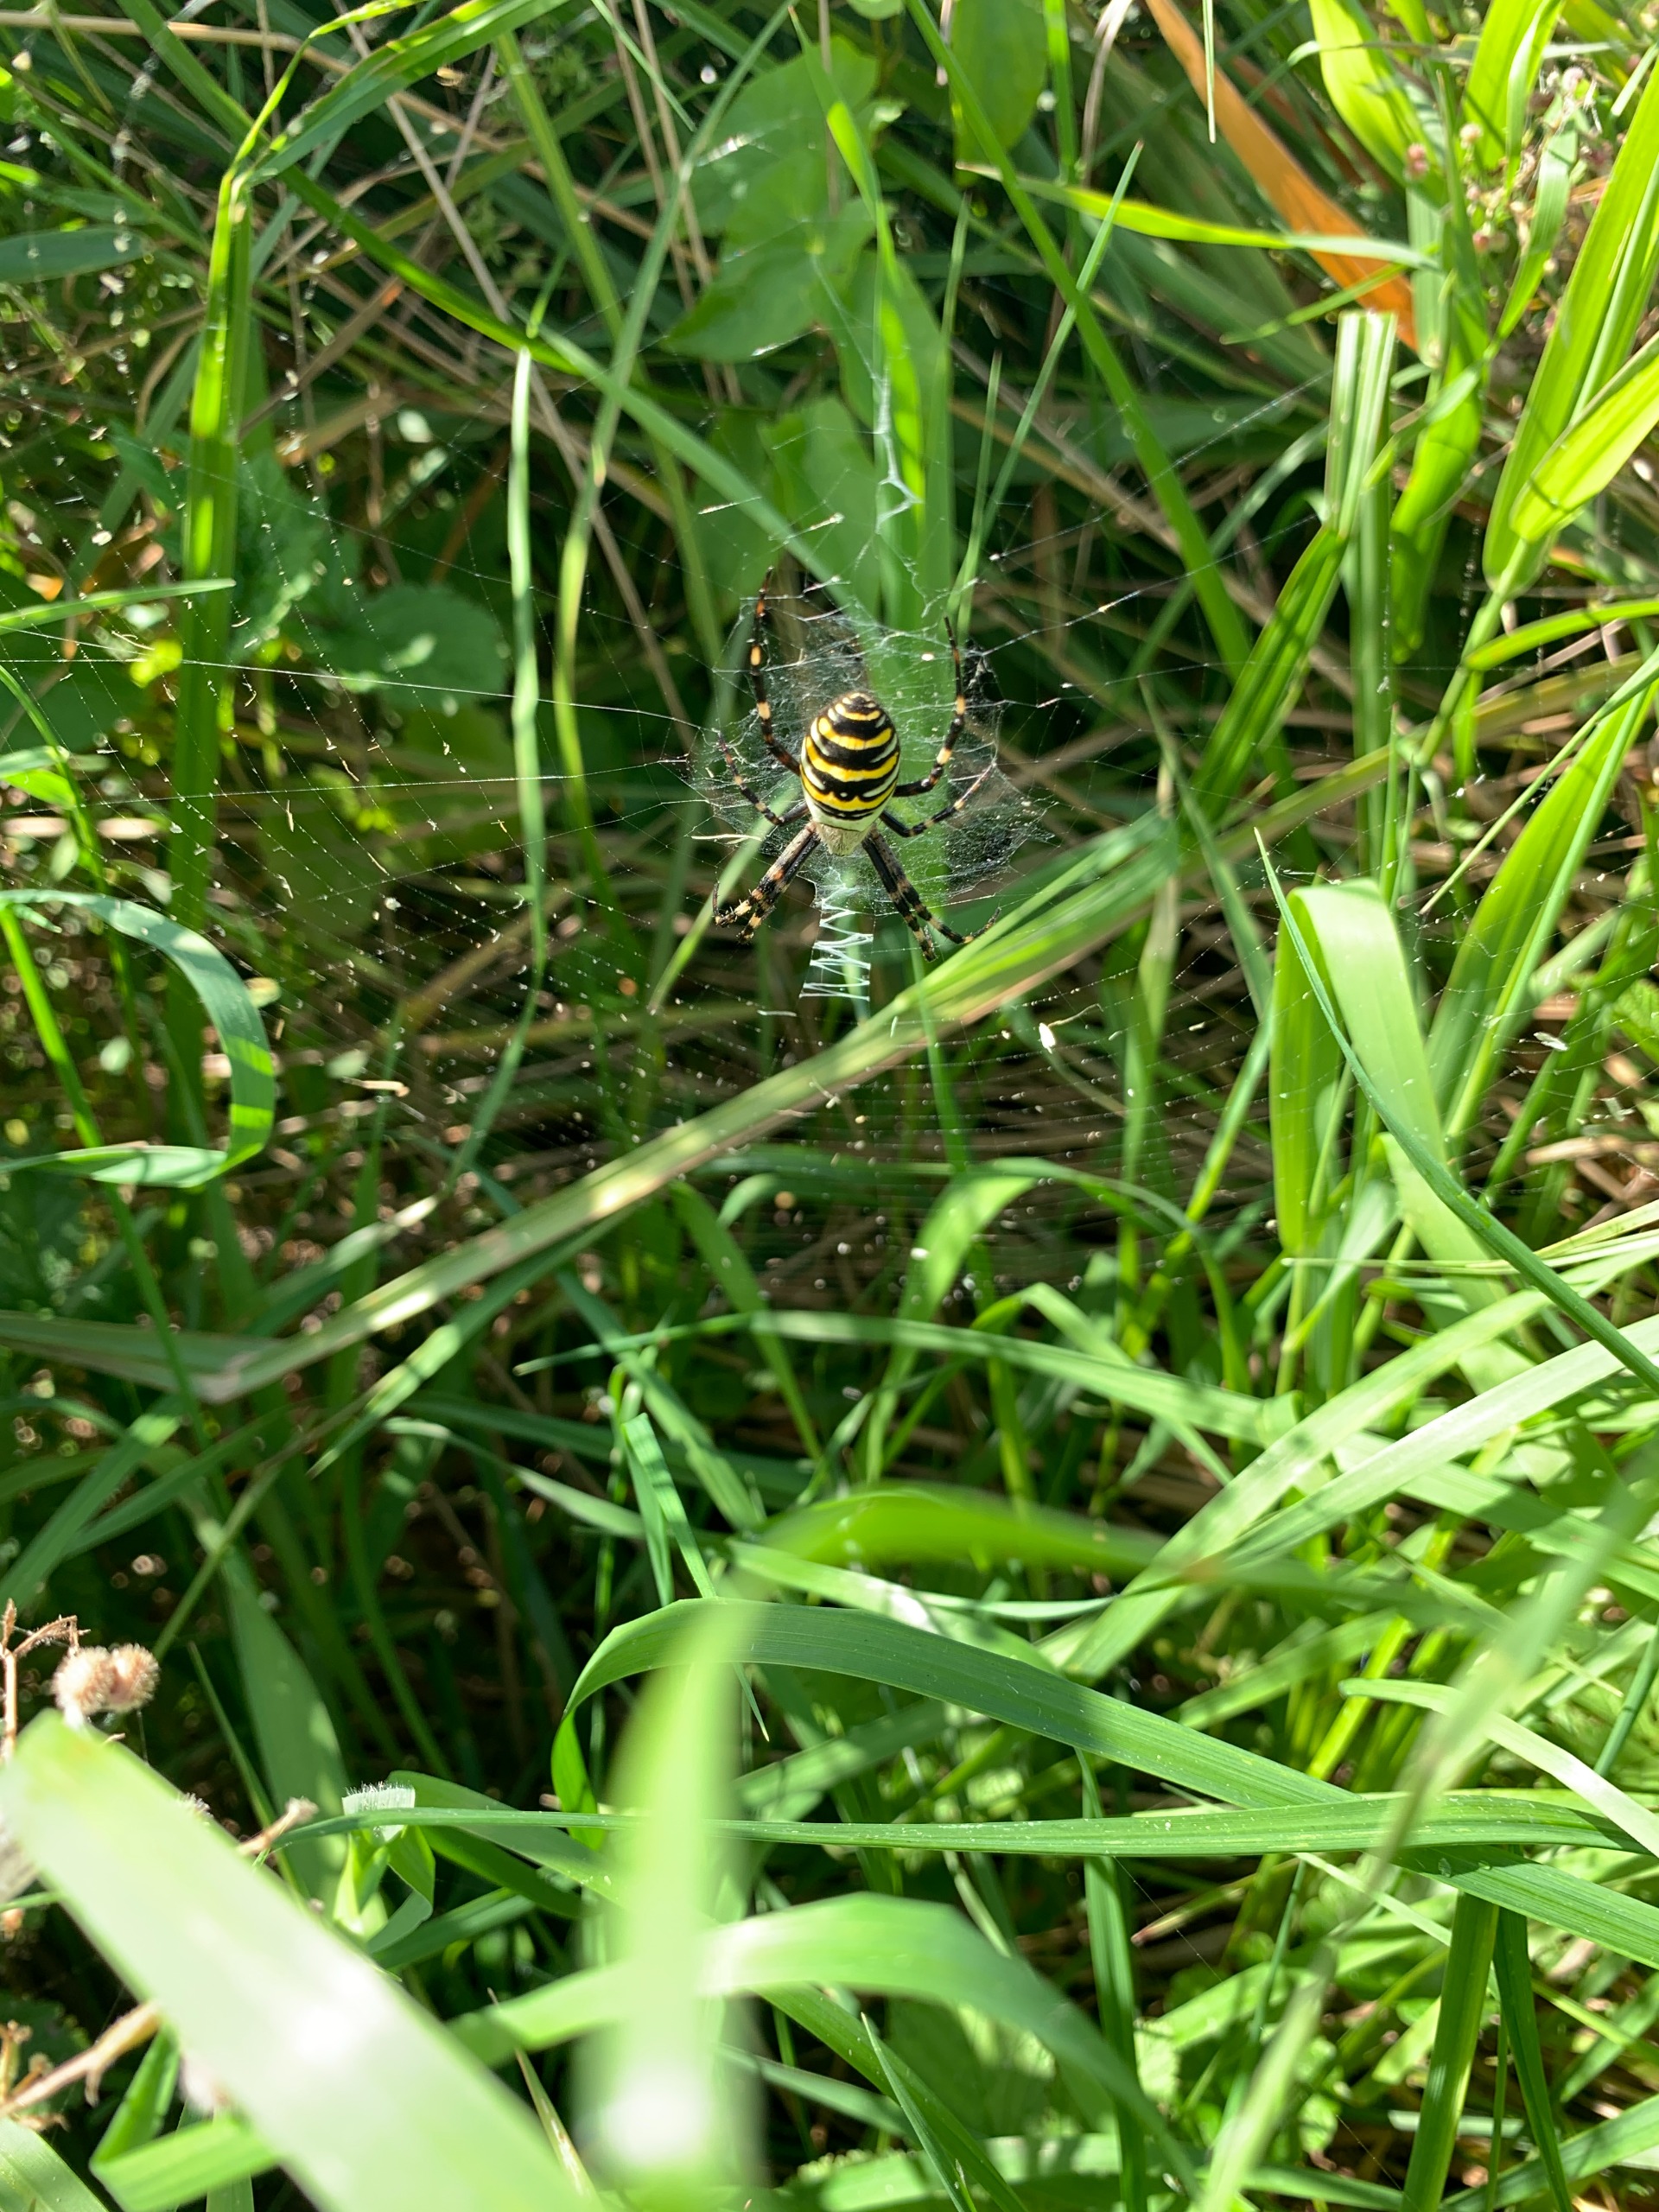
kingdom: Animalia
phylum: Arthropoda
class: Arachnida
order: Araneae
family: Araneidae
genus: Argiope
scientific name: Argiope bruennichi
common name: Hvepseedderkop
